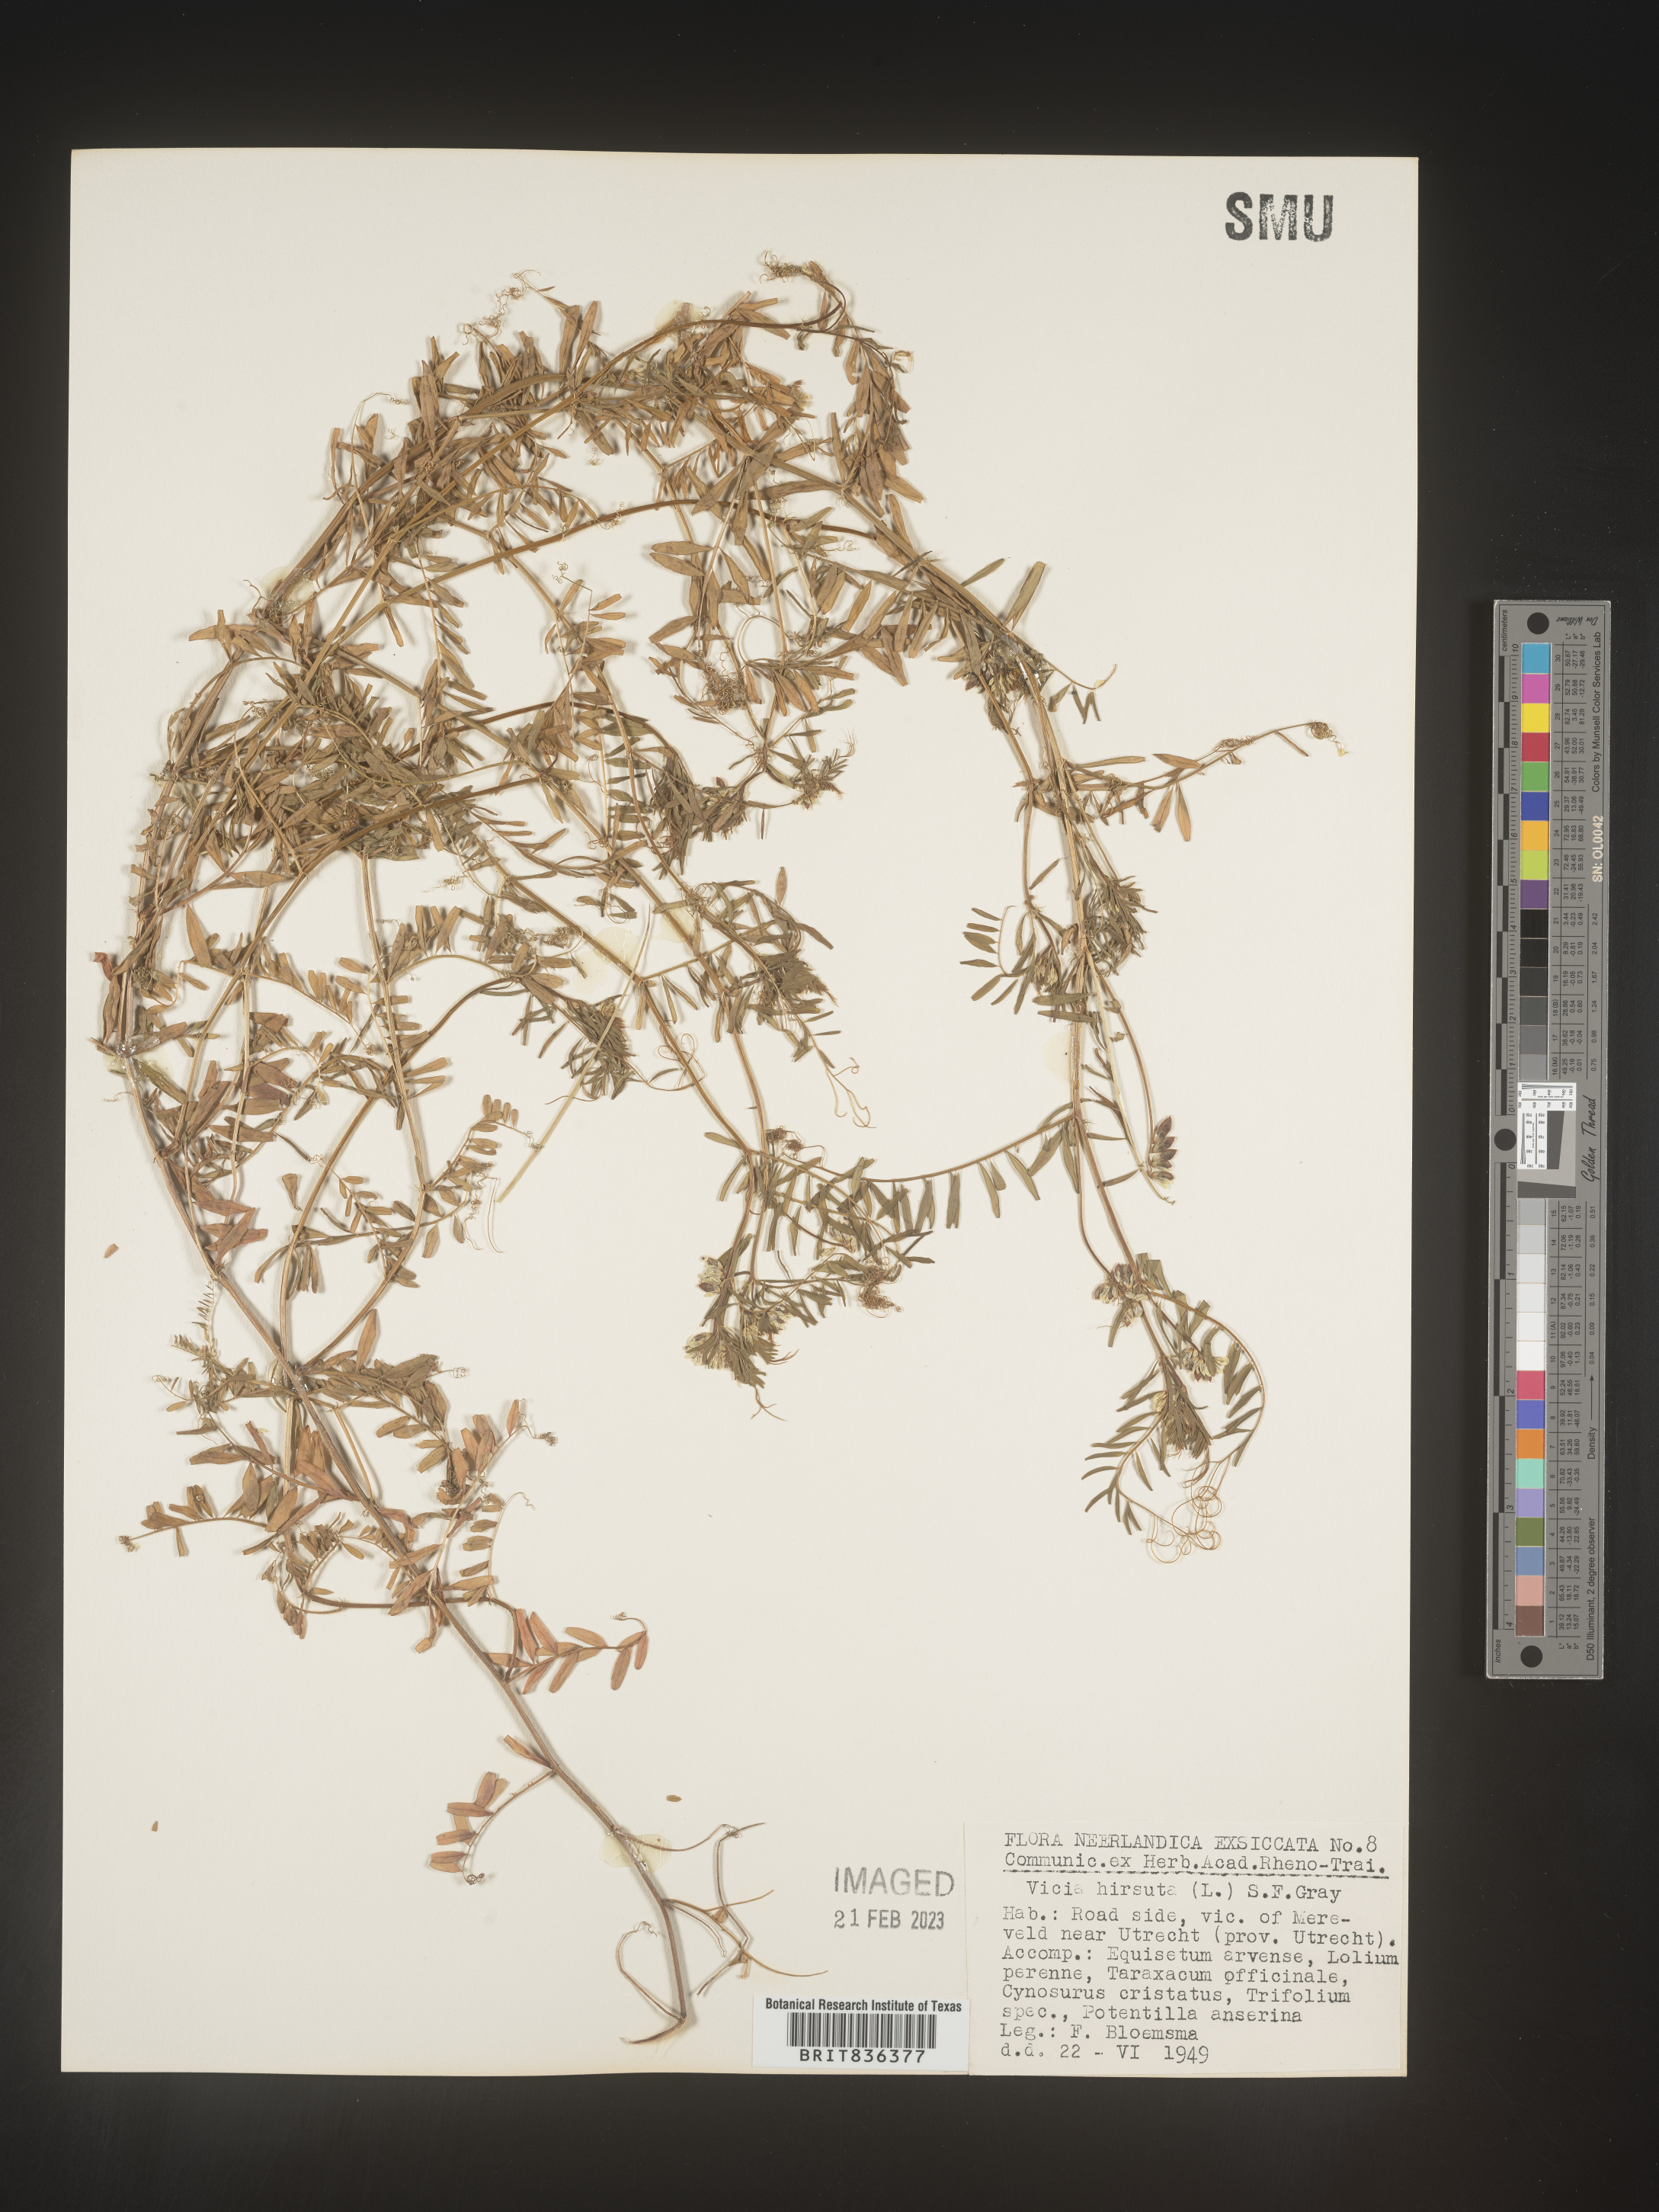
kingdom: Plantae
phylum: Tracheophyta
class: Magnoliopsida
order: Fabales
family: Fabaceae
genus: Vicia
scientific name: Vicia
